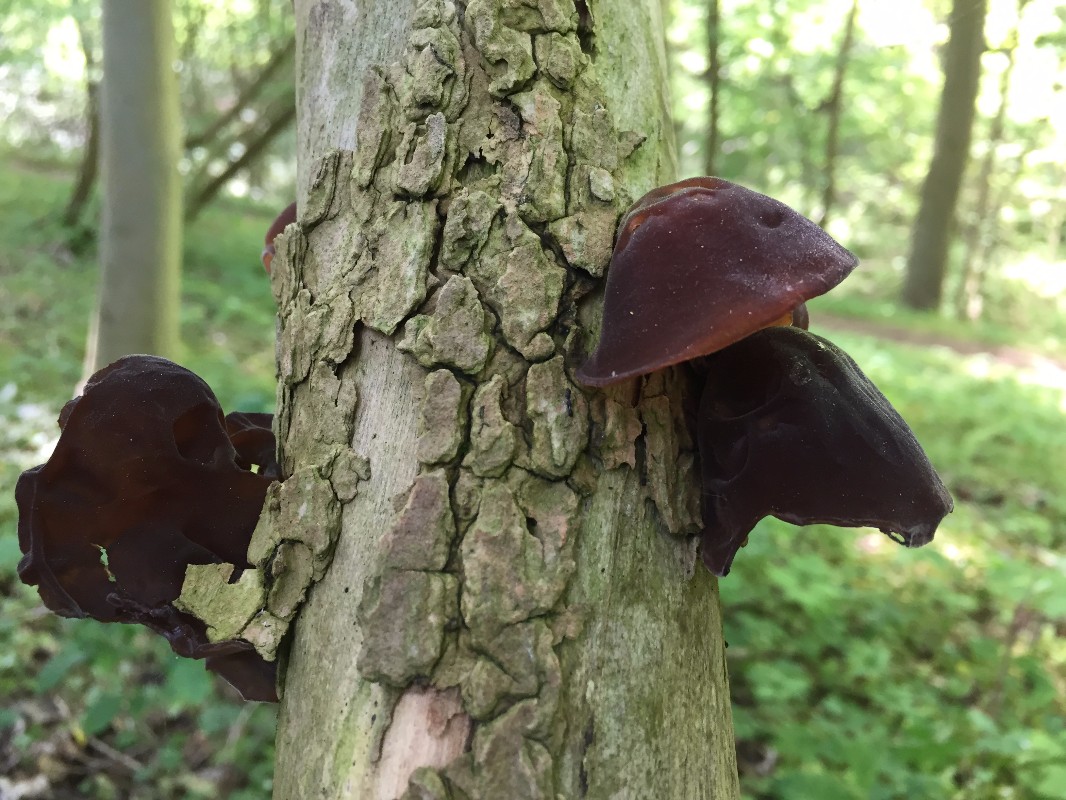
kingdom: Fungi
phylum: Basidiomycota
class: Agaricomycetes
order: Auriculariales
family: Auriculariaceae
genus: Auricularia
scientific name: Auricularia auricula-judae
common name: almindelig judasøre
